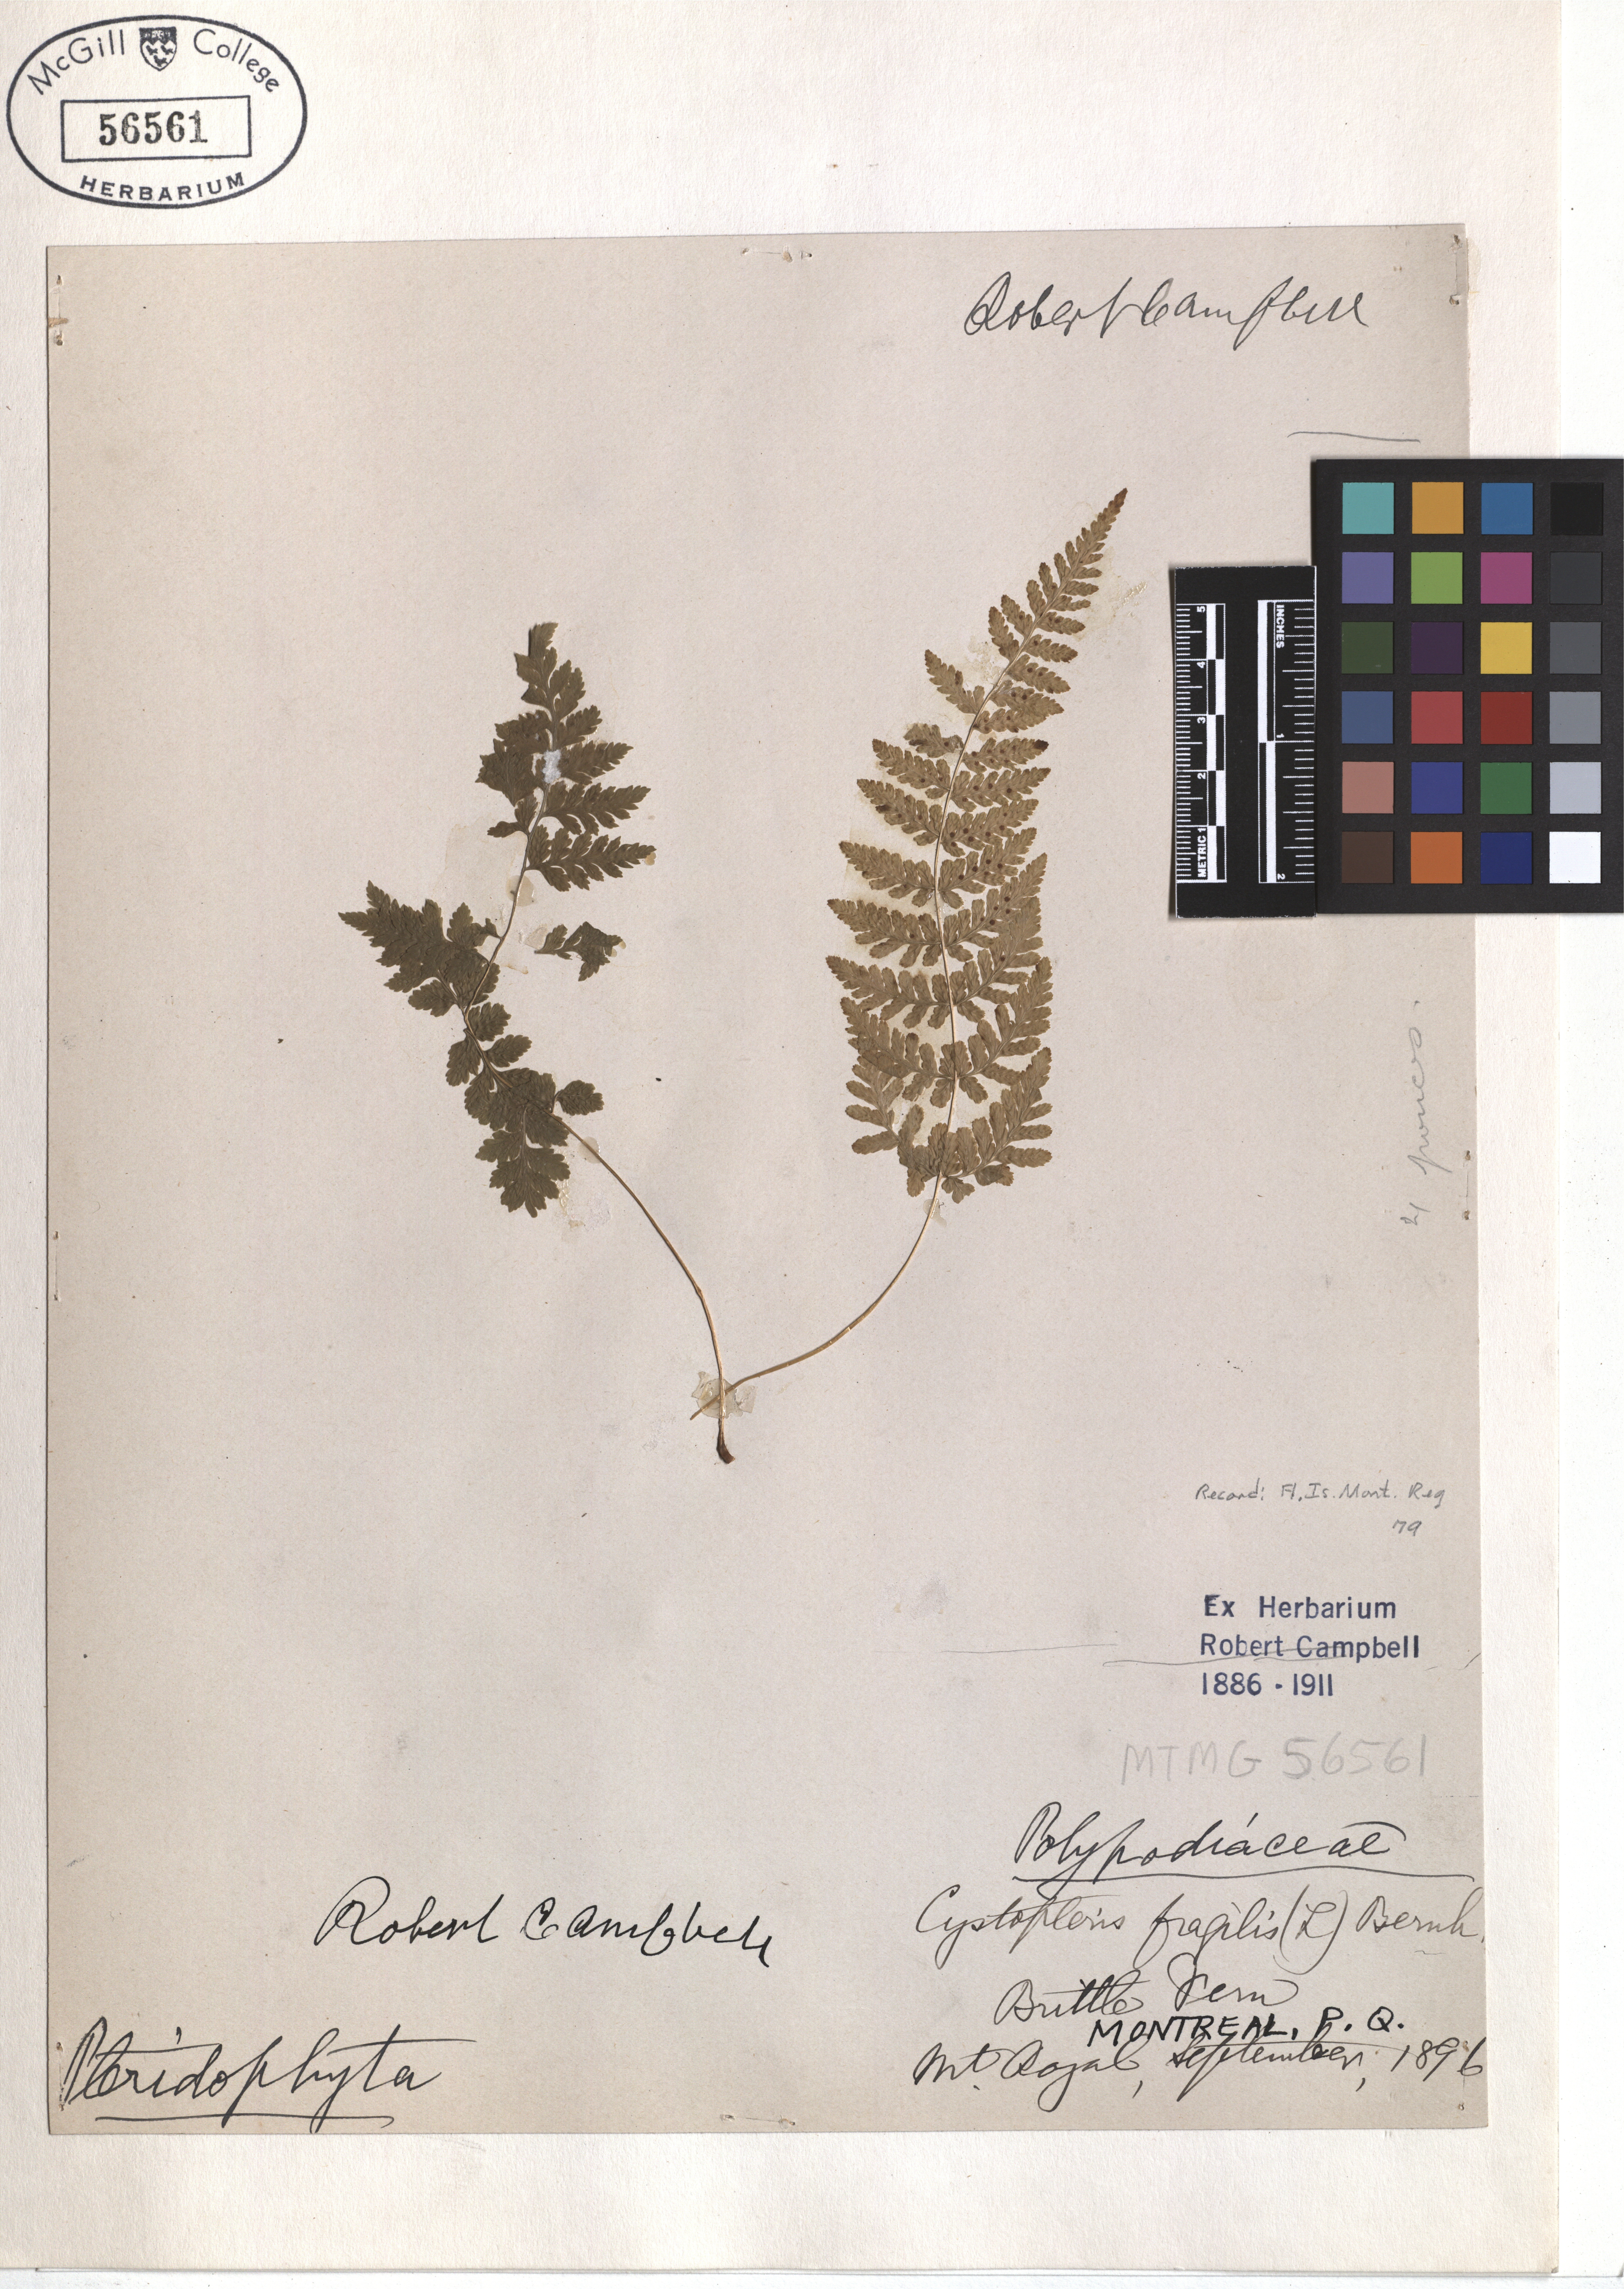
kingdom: Plantae
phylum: Tracheophyta
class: Polypodiopsida
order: Polypodiales
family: Cystopteridaceae
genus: Cystopteris
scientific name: Cystopteris fragilis
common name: Brittle bladder fern
